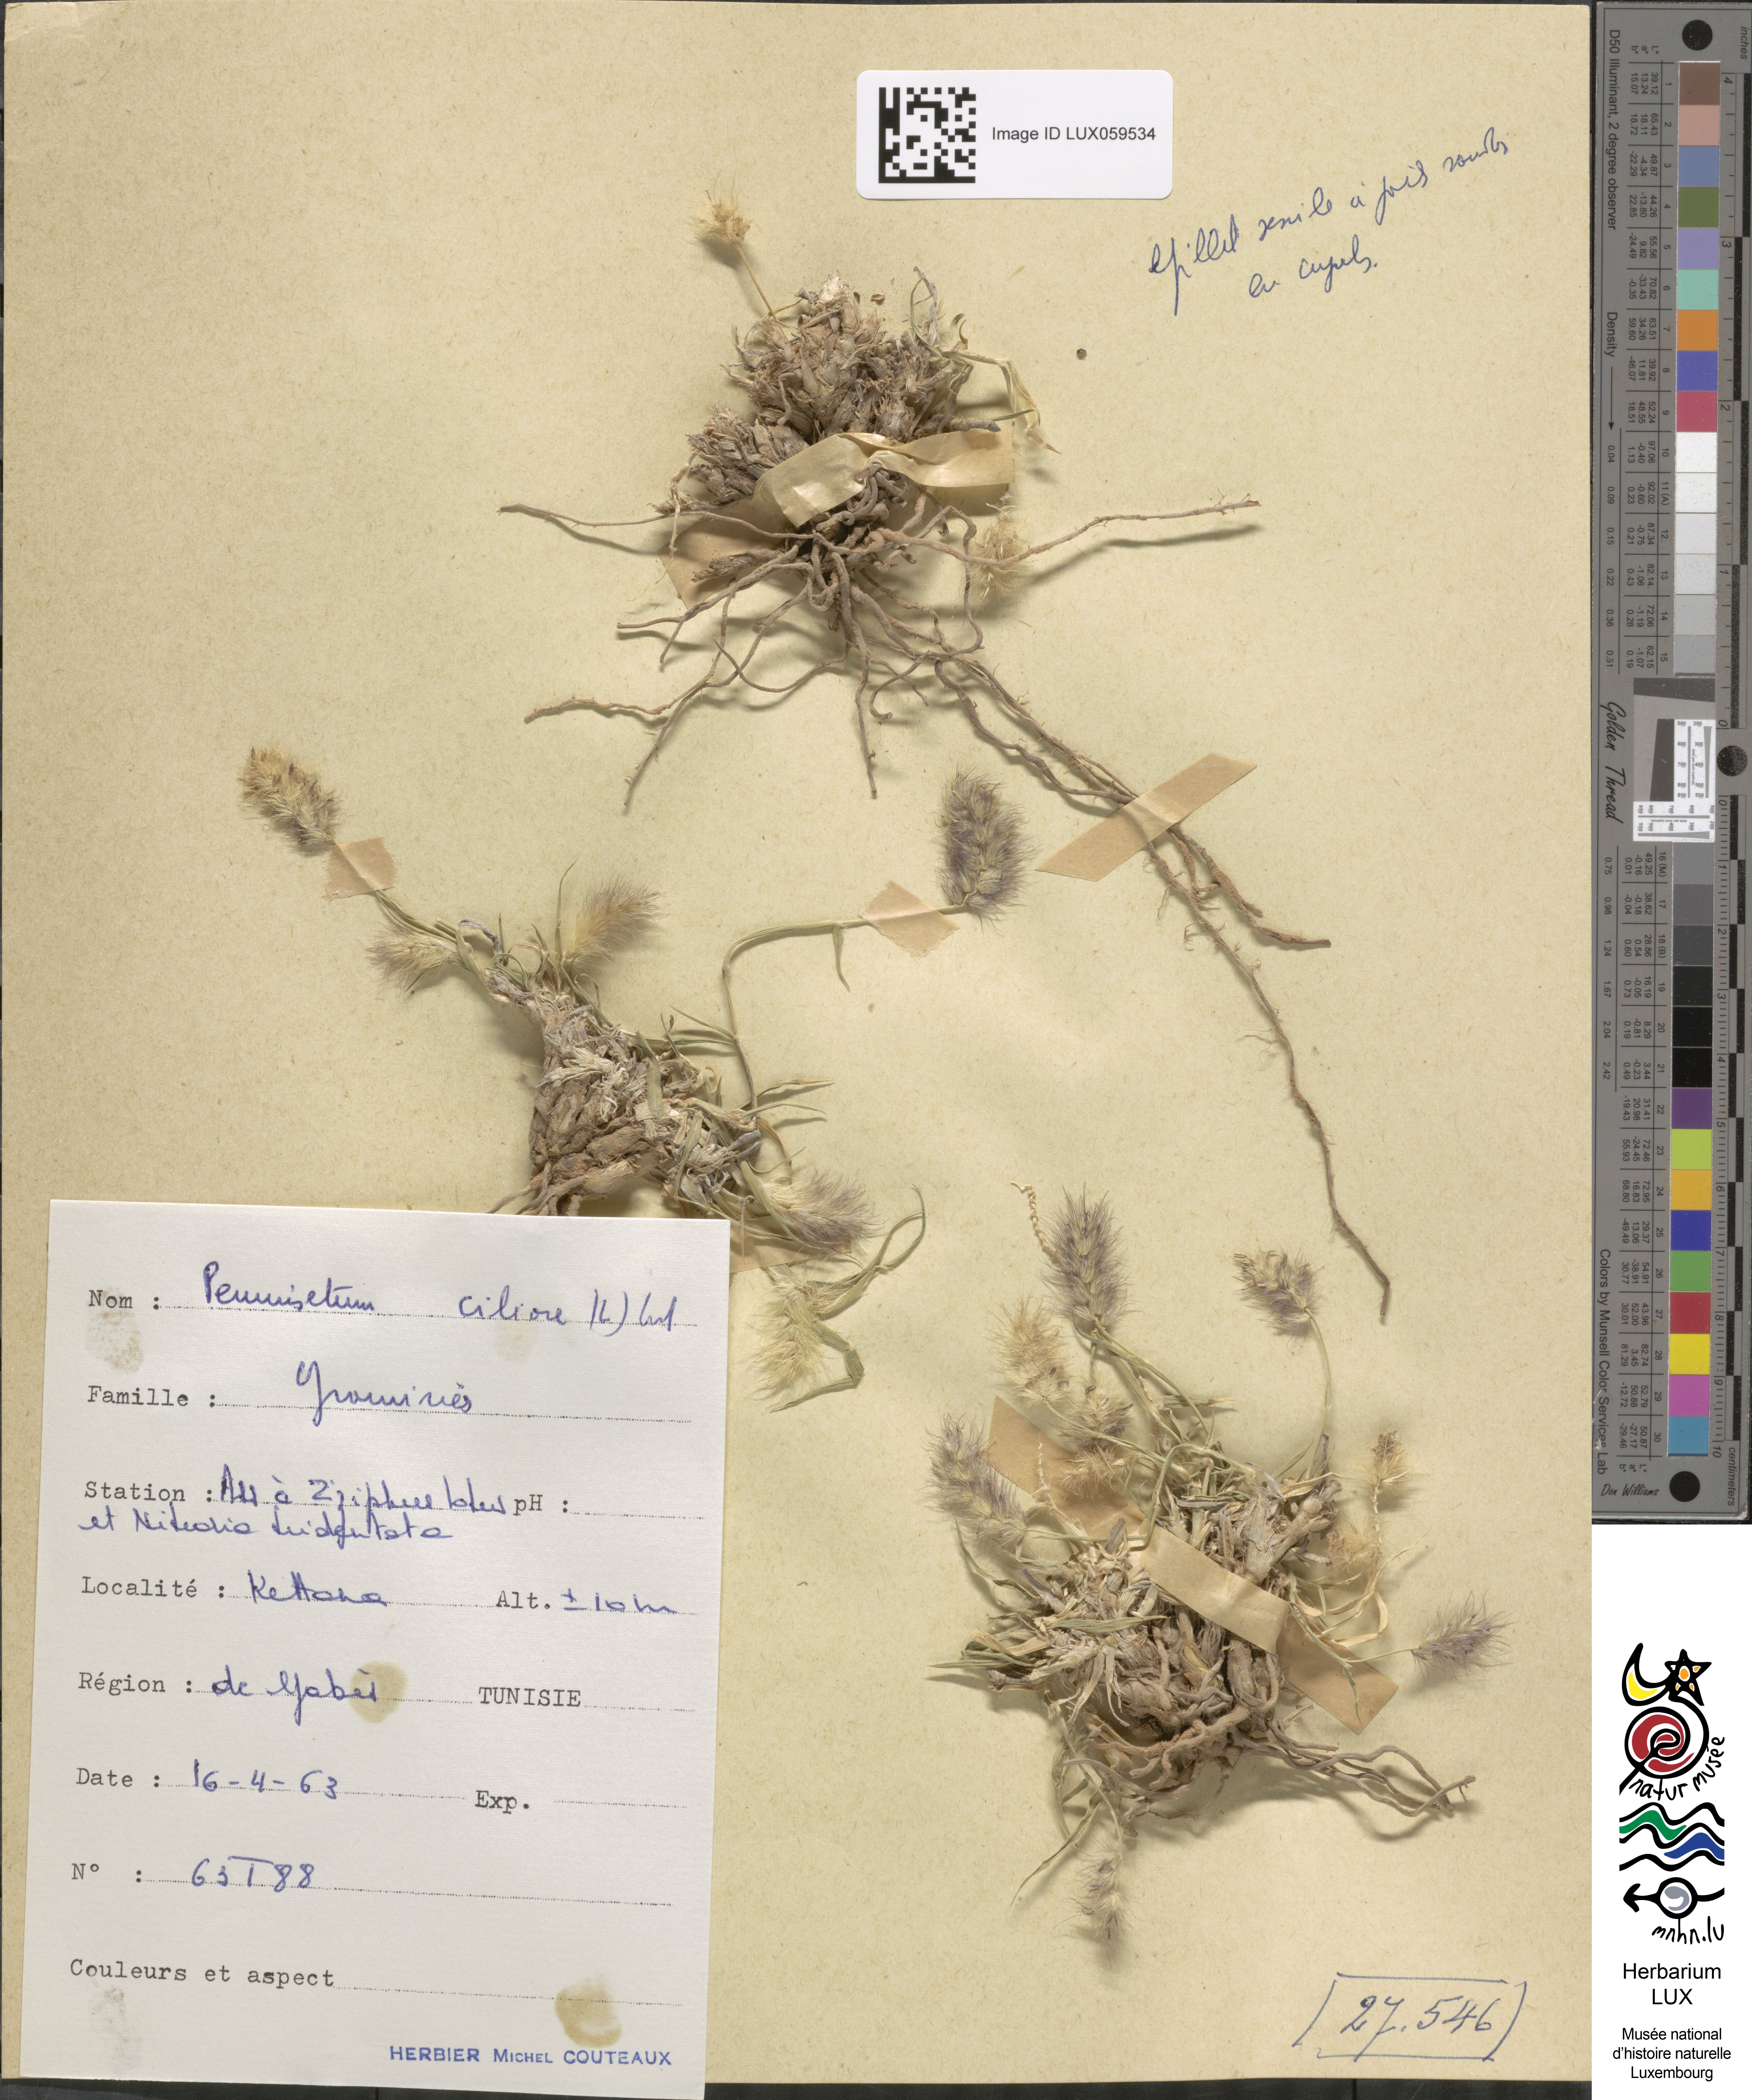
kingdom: Plantae
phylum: Tracheophyta
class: Liliopsida
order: Poales
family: Poaceae
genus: Cenchrus
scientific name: Cenchrus ciliaris
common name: Buffelgrass
